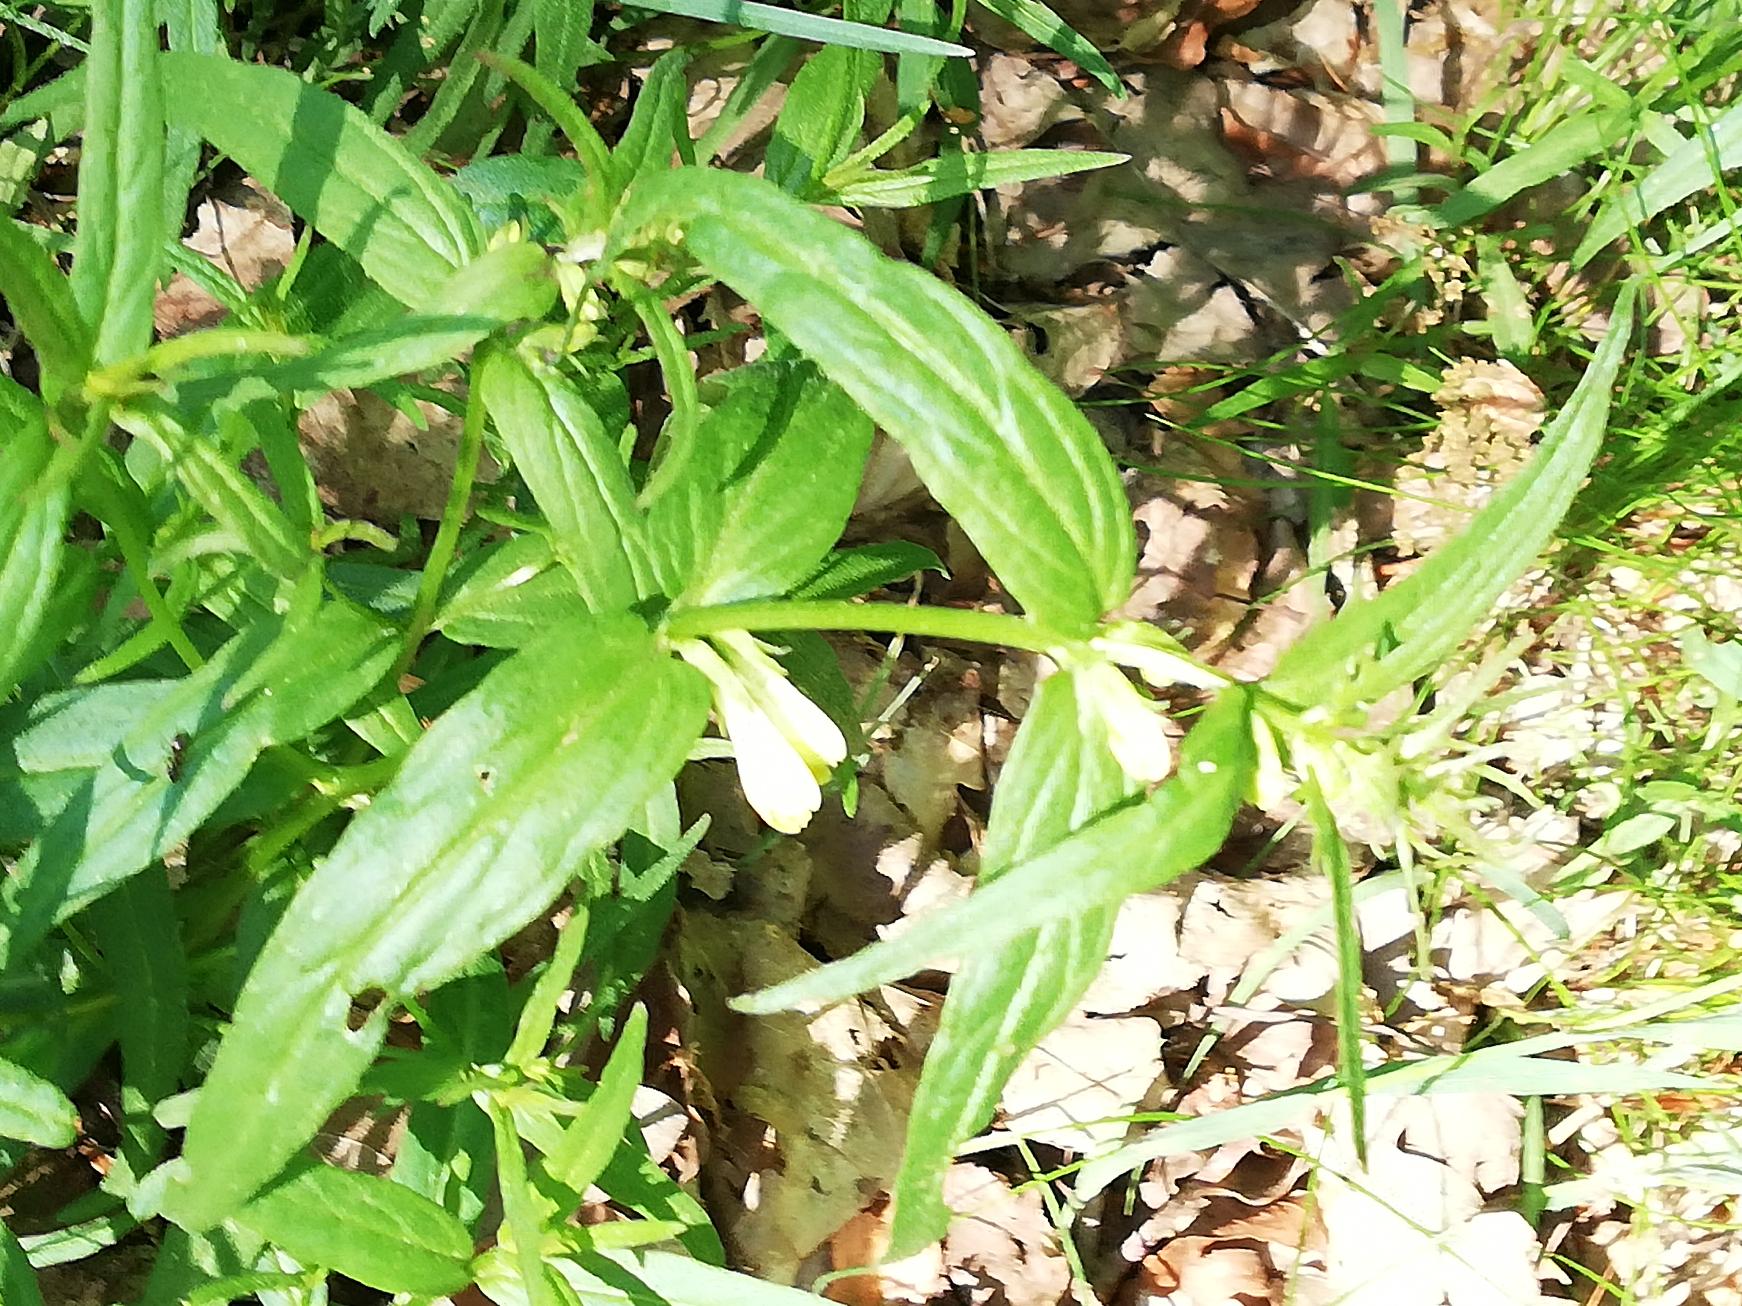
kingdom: Plantae
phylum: Tracheophyta
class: Magnoliopsida
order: Lamiales
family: Orobanchaceae
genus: Melampyrum
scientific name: Melampyrum pratense
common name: Almindelig kohvede
